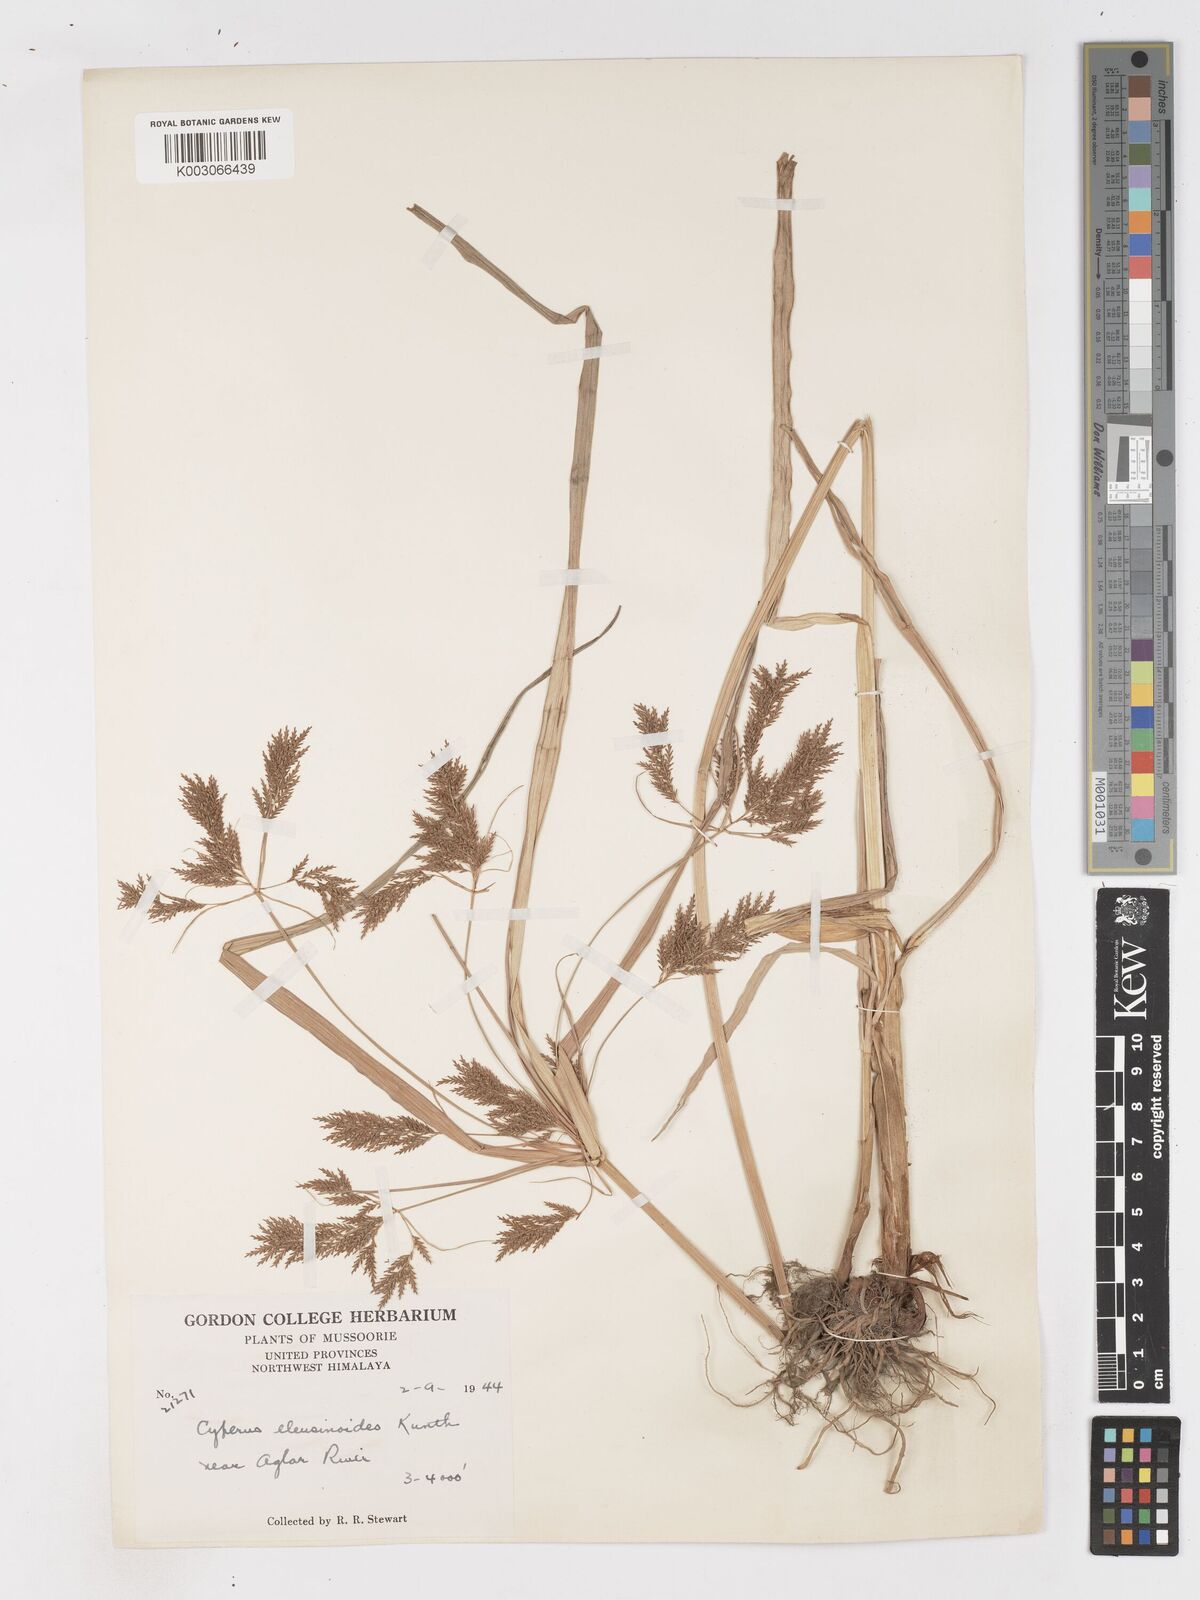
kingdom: Plantae
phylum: Tracheophyta
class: Liliopsida
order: Poales
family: Cyperaceae
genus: Cyperus
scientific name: Cyperus nutans
